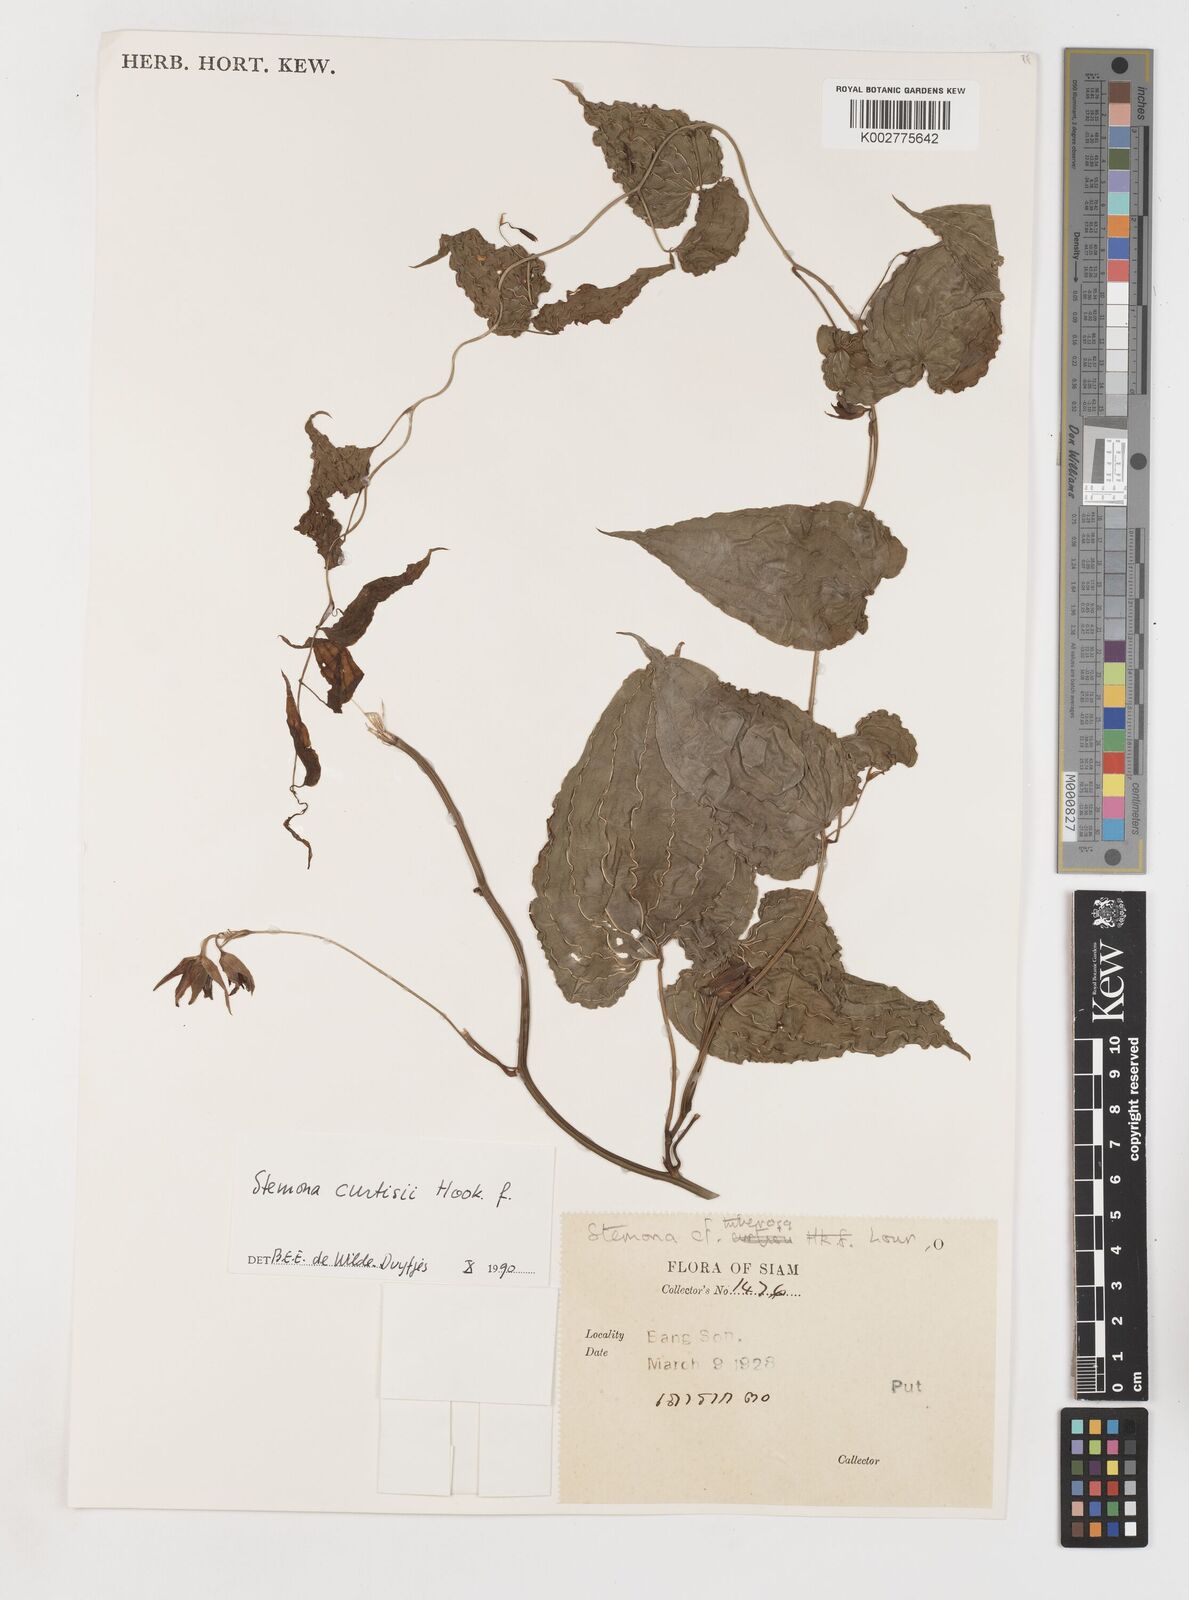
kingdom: Plantae
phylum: Tracheophyta
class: Liliopsida
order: Pandanales
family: Stemonaceae
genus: Stemona
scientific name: Stemona curtisii
